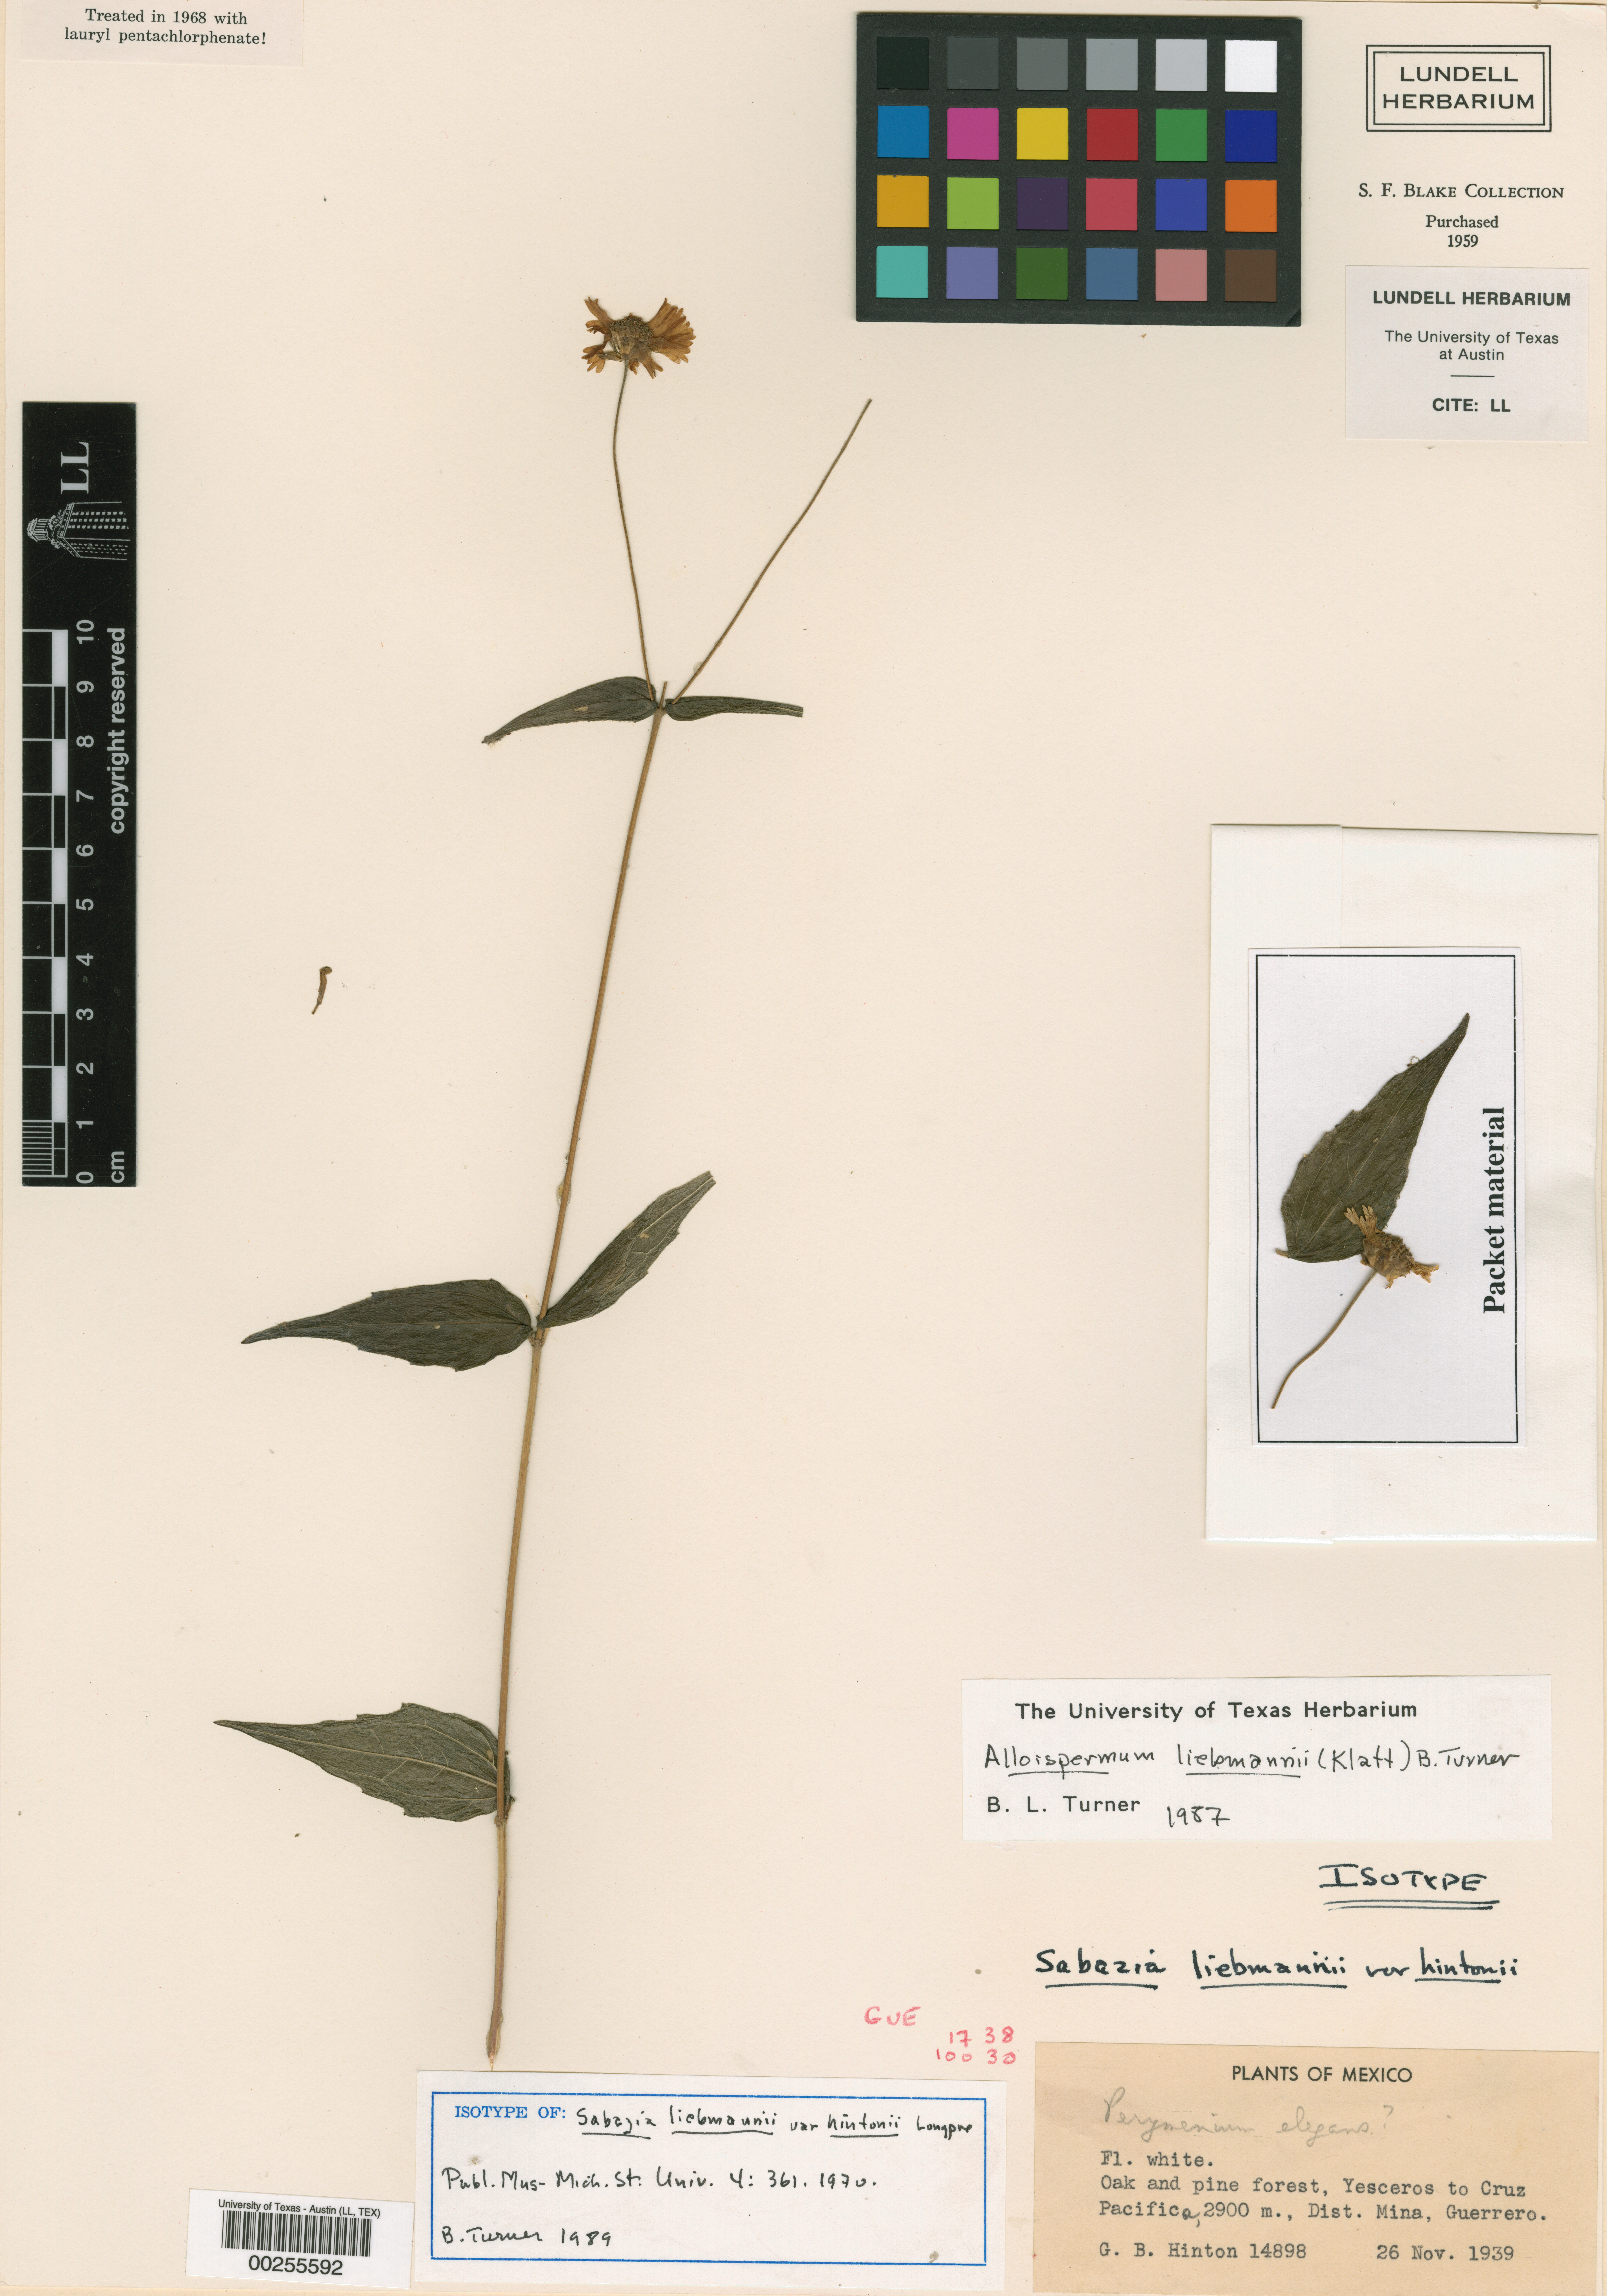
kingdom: Plantae
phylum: Tracheophyta
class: Magnoliopsida
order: Asterales
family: Asteraceae
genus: Alloispermum
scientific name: Alloispermum michoacanum
